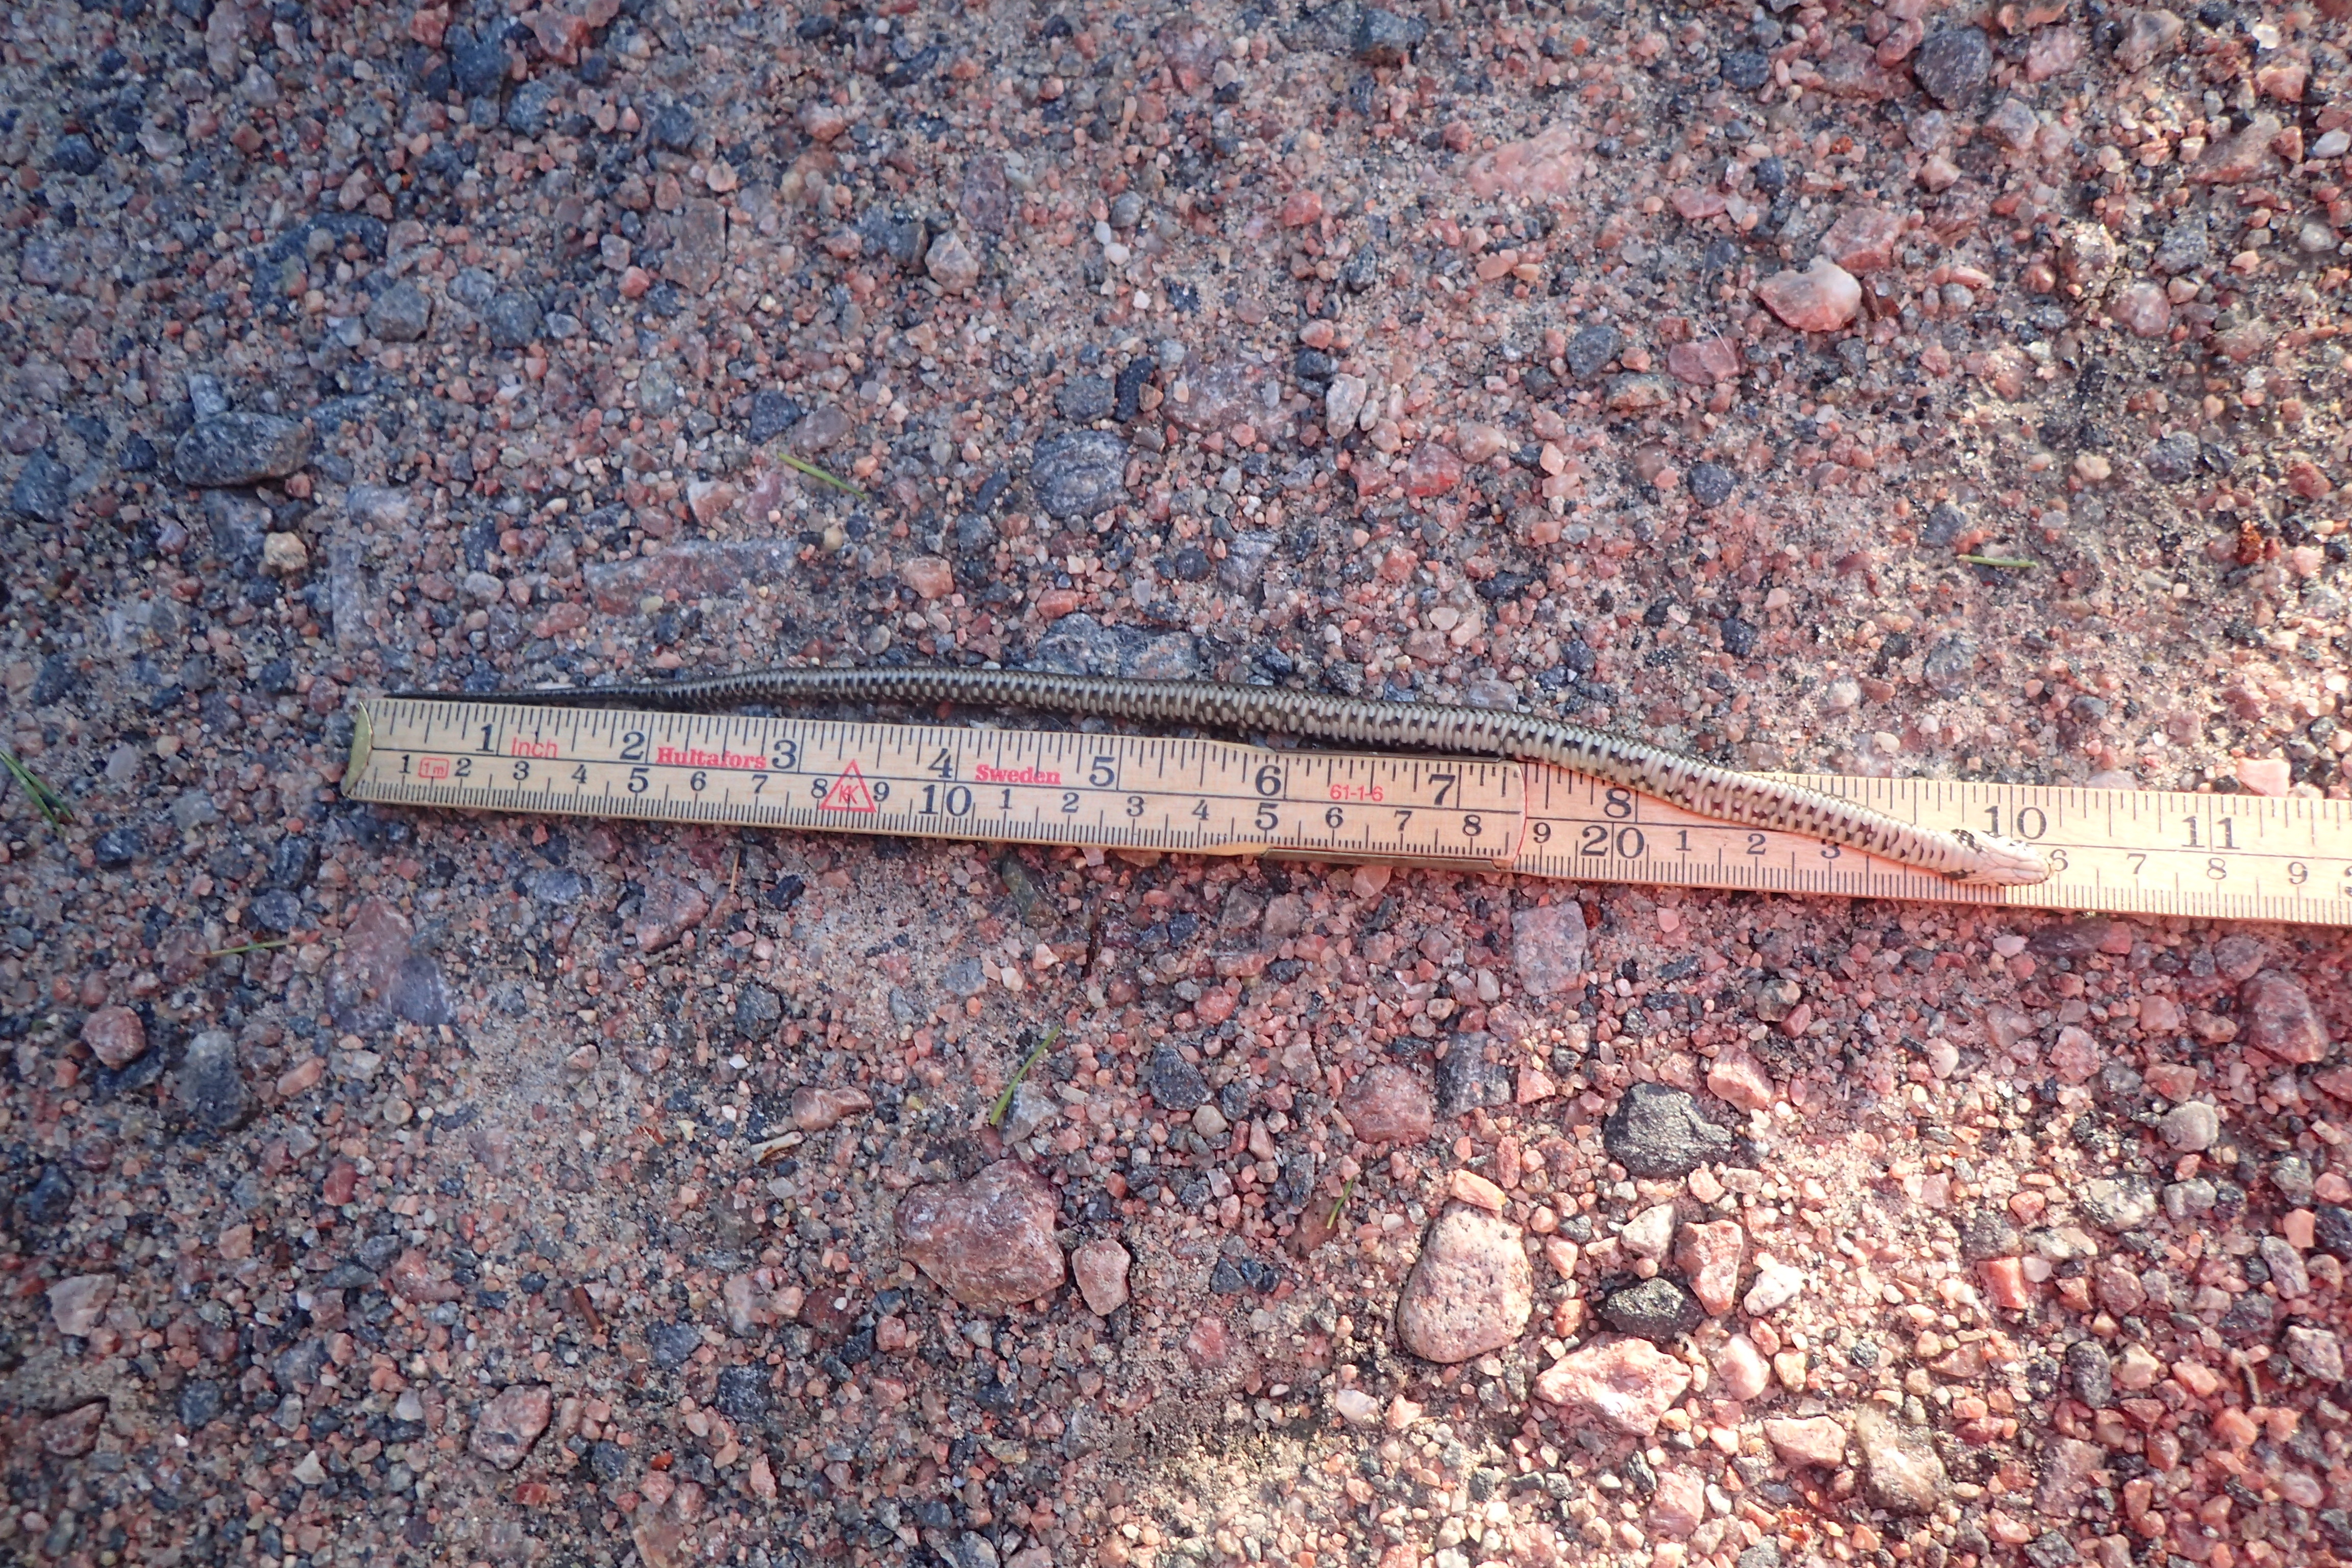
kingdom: Animalia
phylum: Chordata
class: Squamata
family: Colubridae
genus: Natrix
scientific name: Natrix natrix
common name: Grass snake
